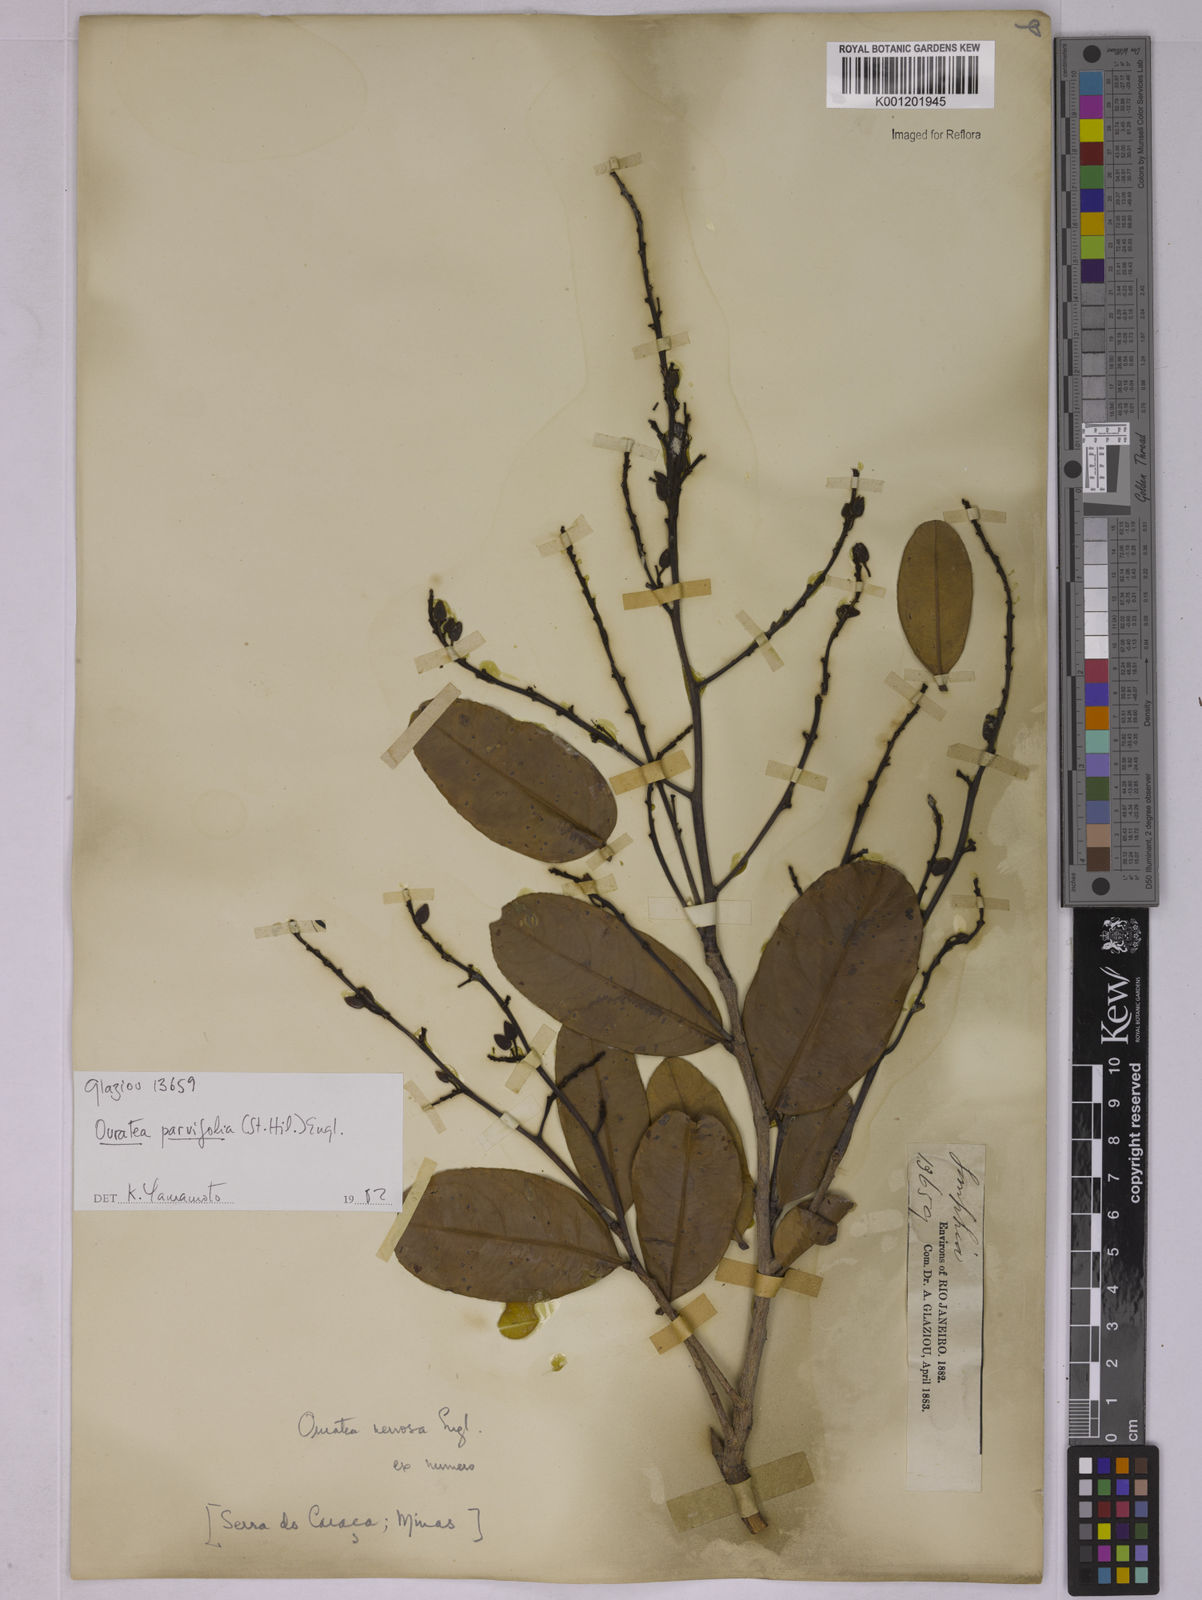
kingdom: Plantae
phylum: Tracheophyta
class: Magnoliopsida
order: Malpighiales
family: Ochnaceae
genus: Ouratea
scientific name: Ouratea parvifolia
